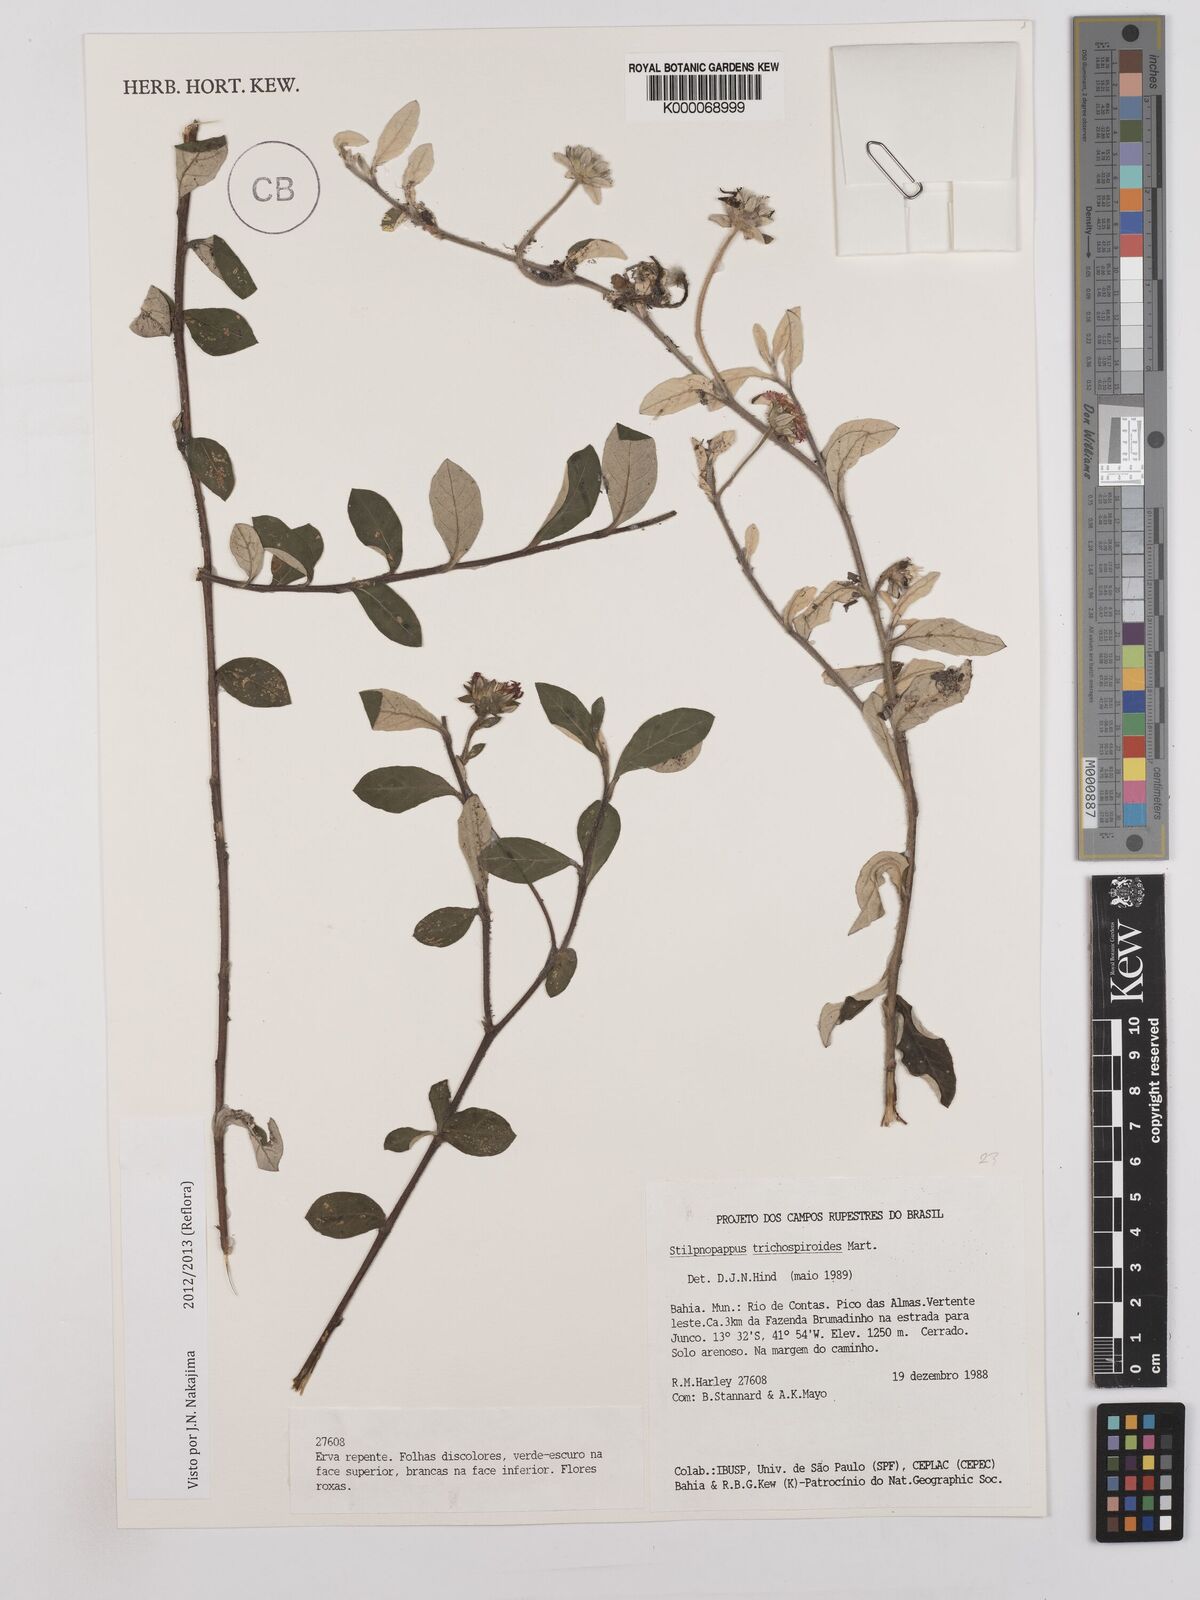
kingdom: Plantae
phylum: Tracheophyta
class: Magnoliopsida
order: Asterales
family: Asteraceae
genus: Stilpnopappus
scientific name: Stilpnopappus
